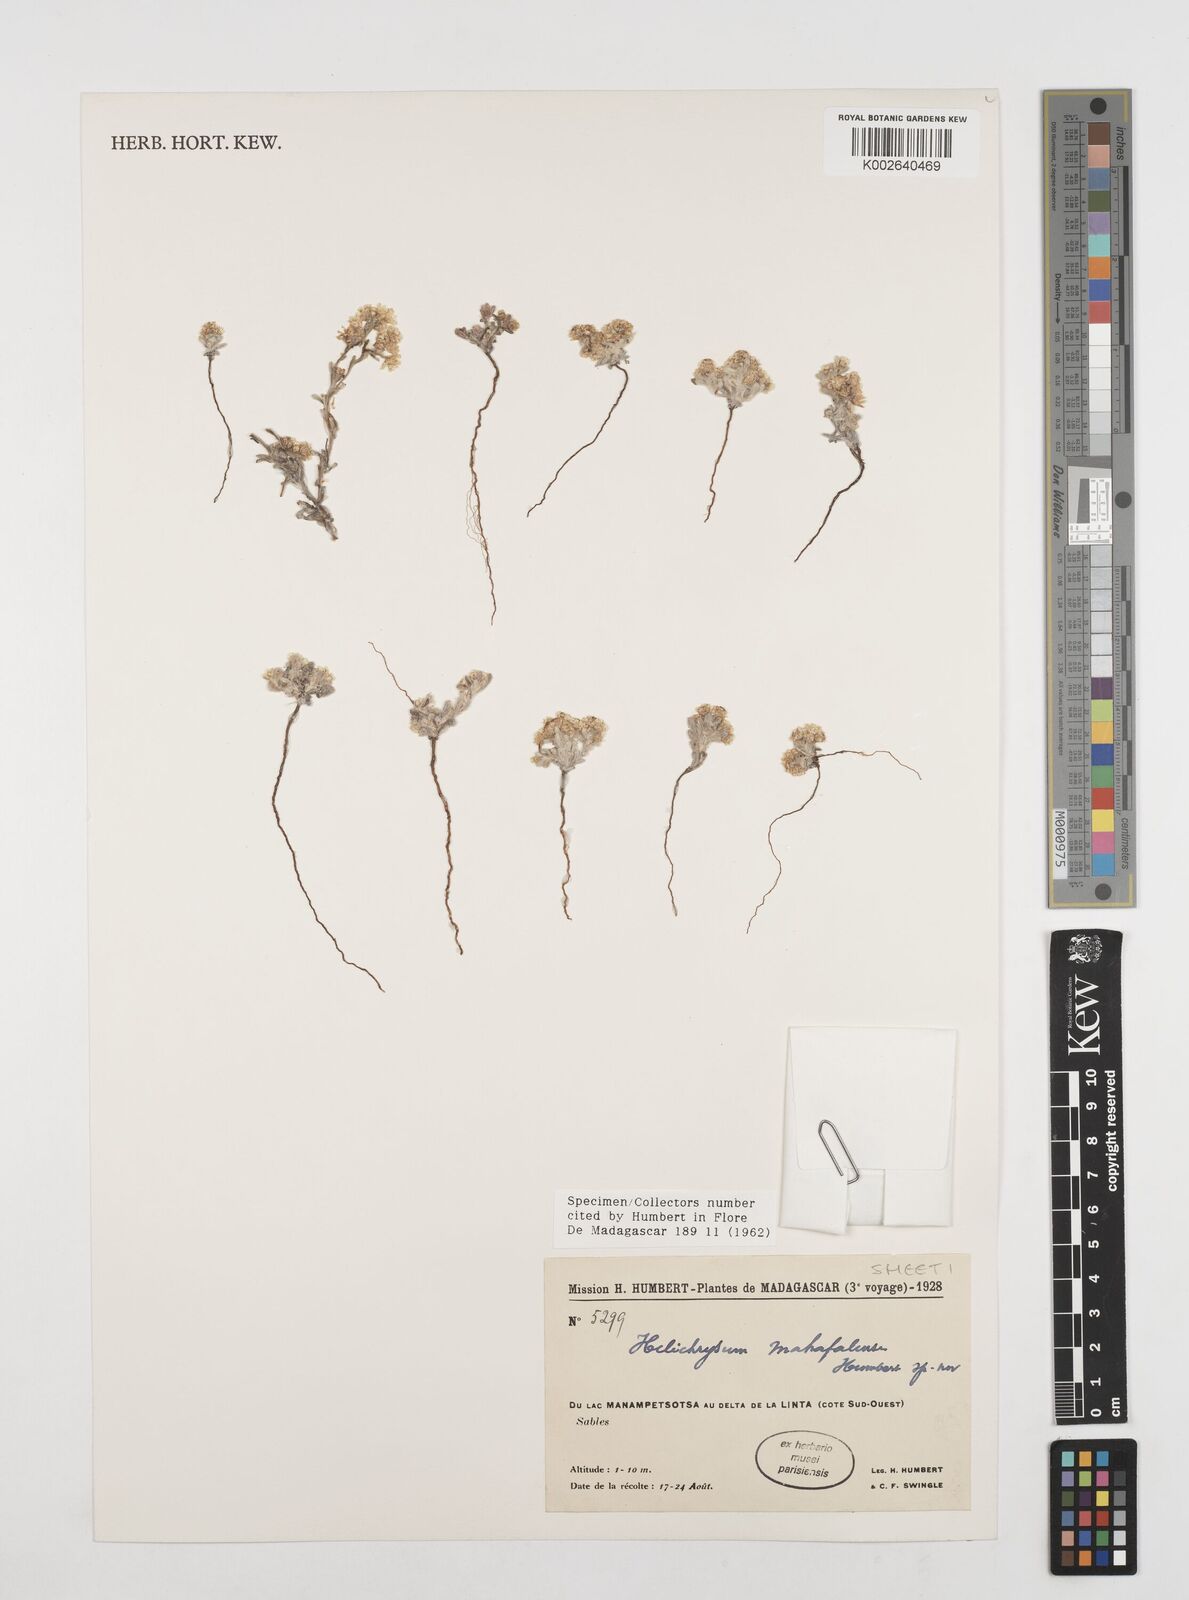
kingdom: Plantae
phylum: Tracheophyta
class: Magnoliopsida
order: Asterales
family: Asteraceae
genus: Helichrysum
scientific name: Helichrysum mahafaly
